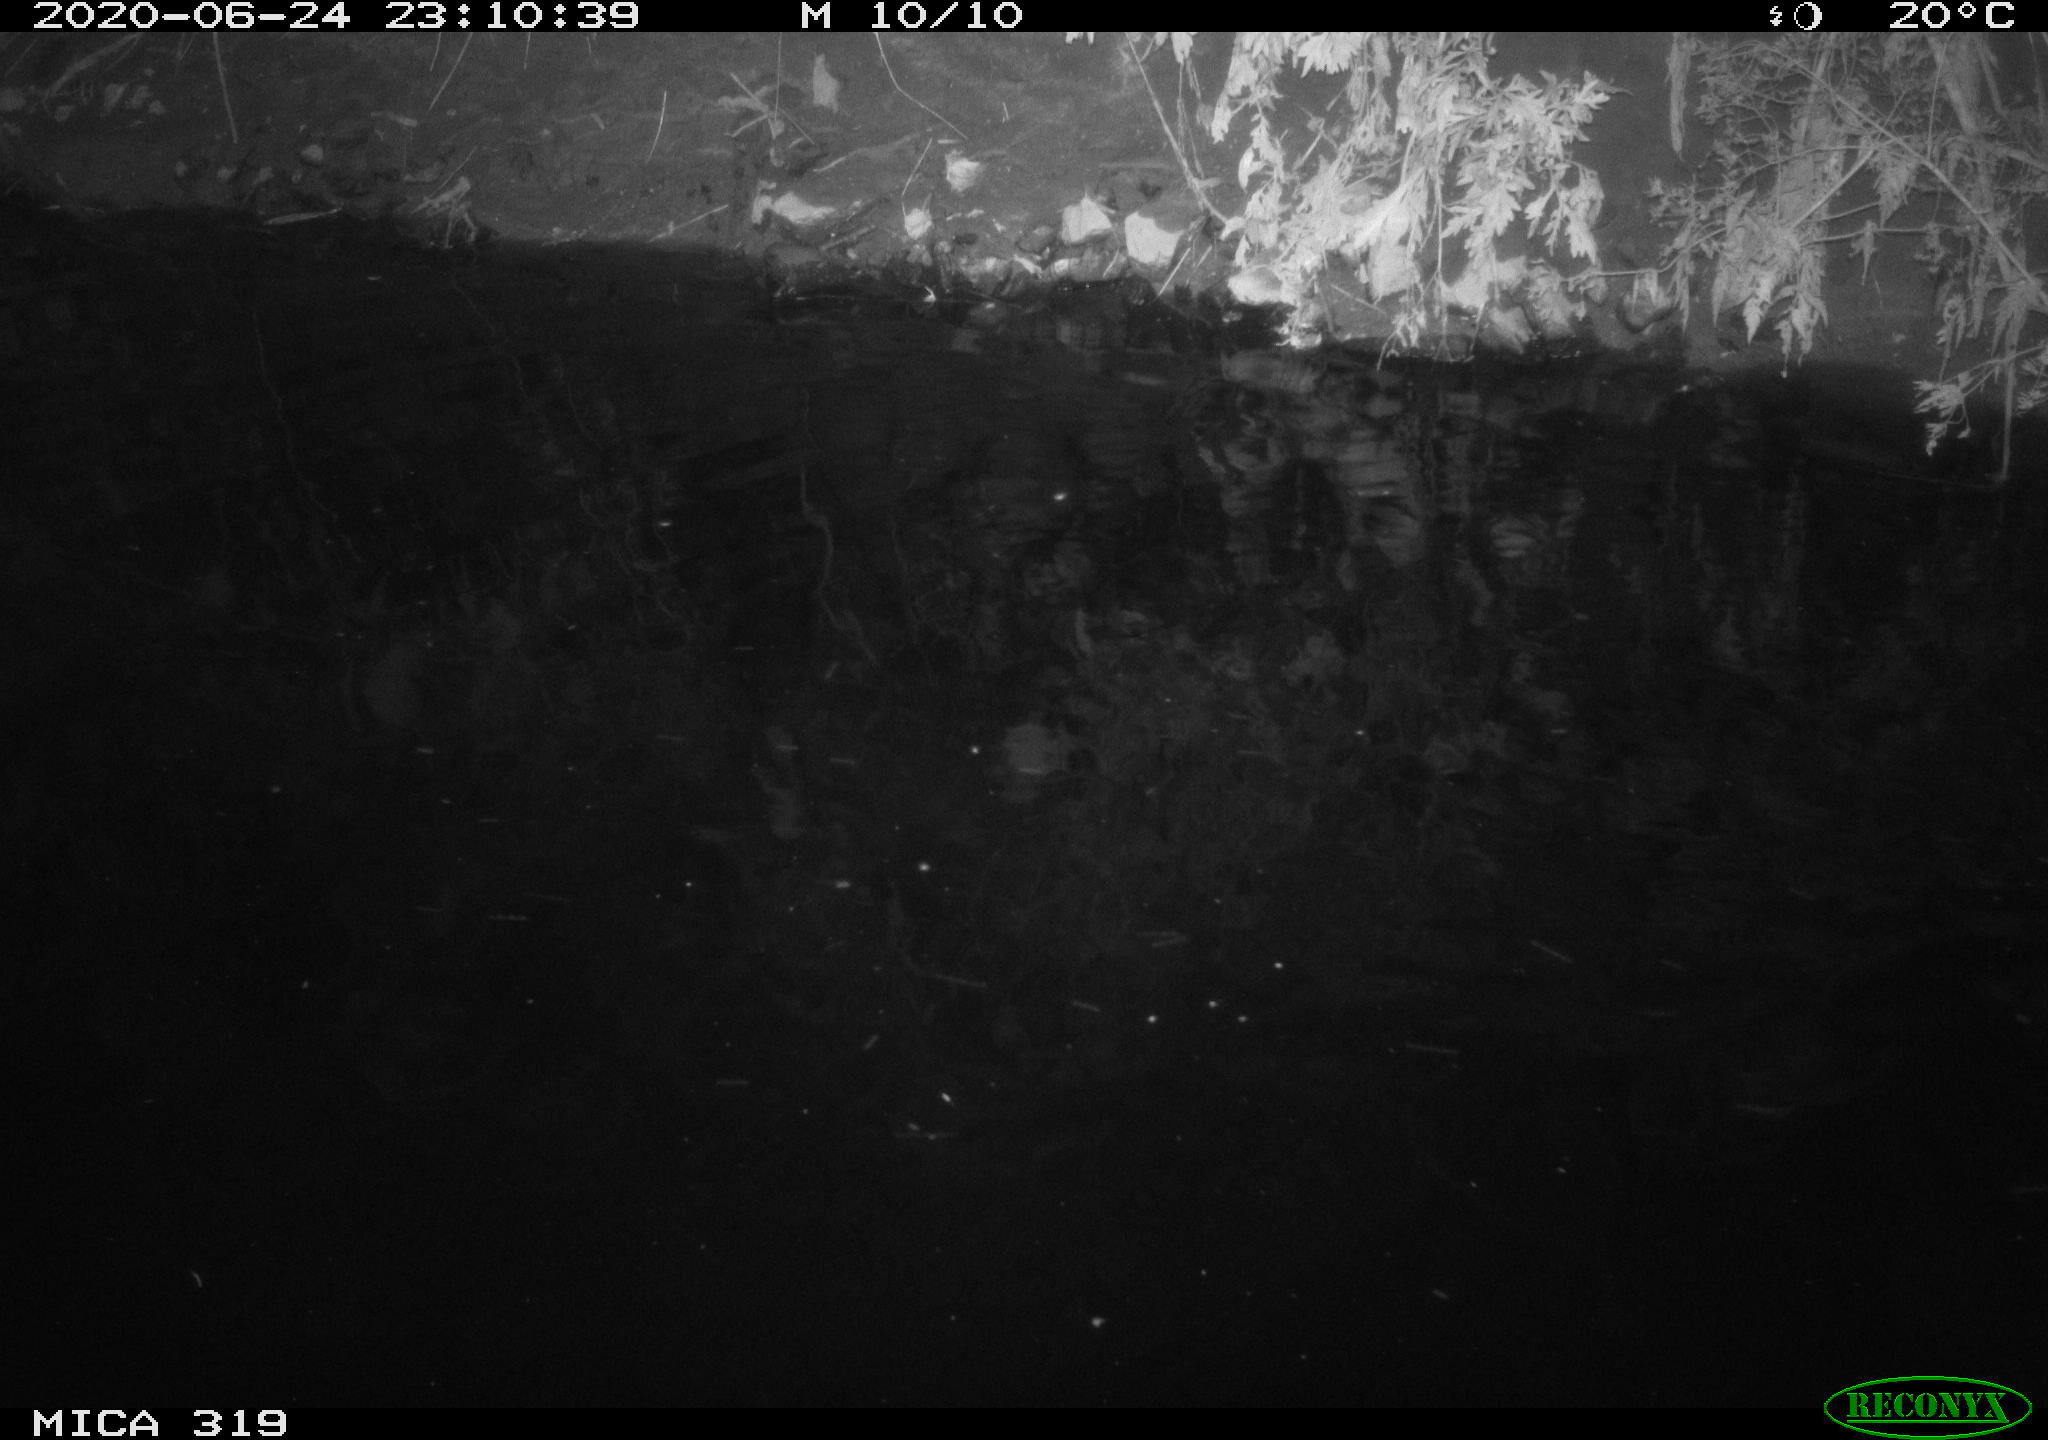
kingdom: Animalia
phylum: Chordata
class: Aves
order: Anseriformes
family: Anatidae
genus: Anas
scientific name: Anas platyrhynchos
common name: Mallard
